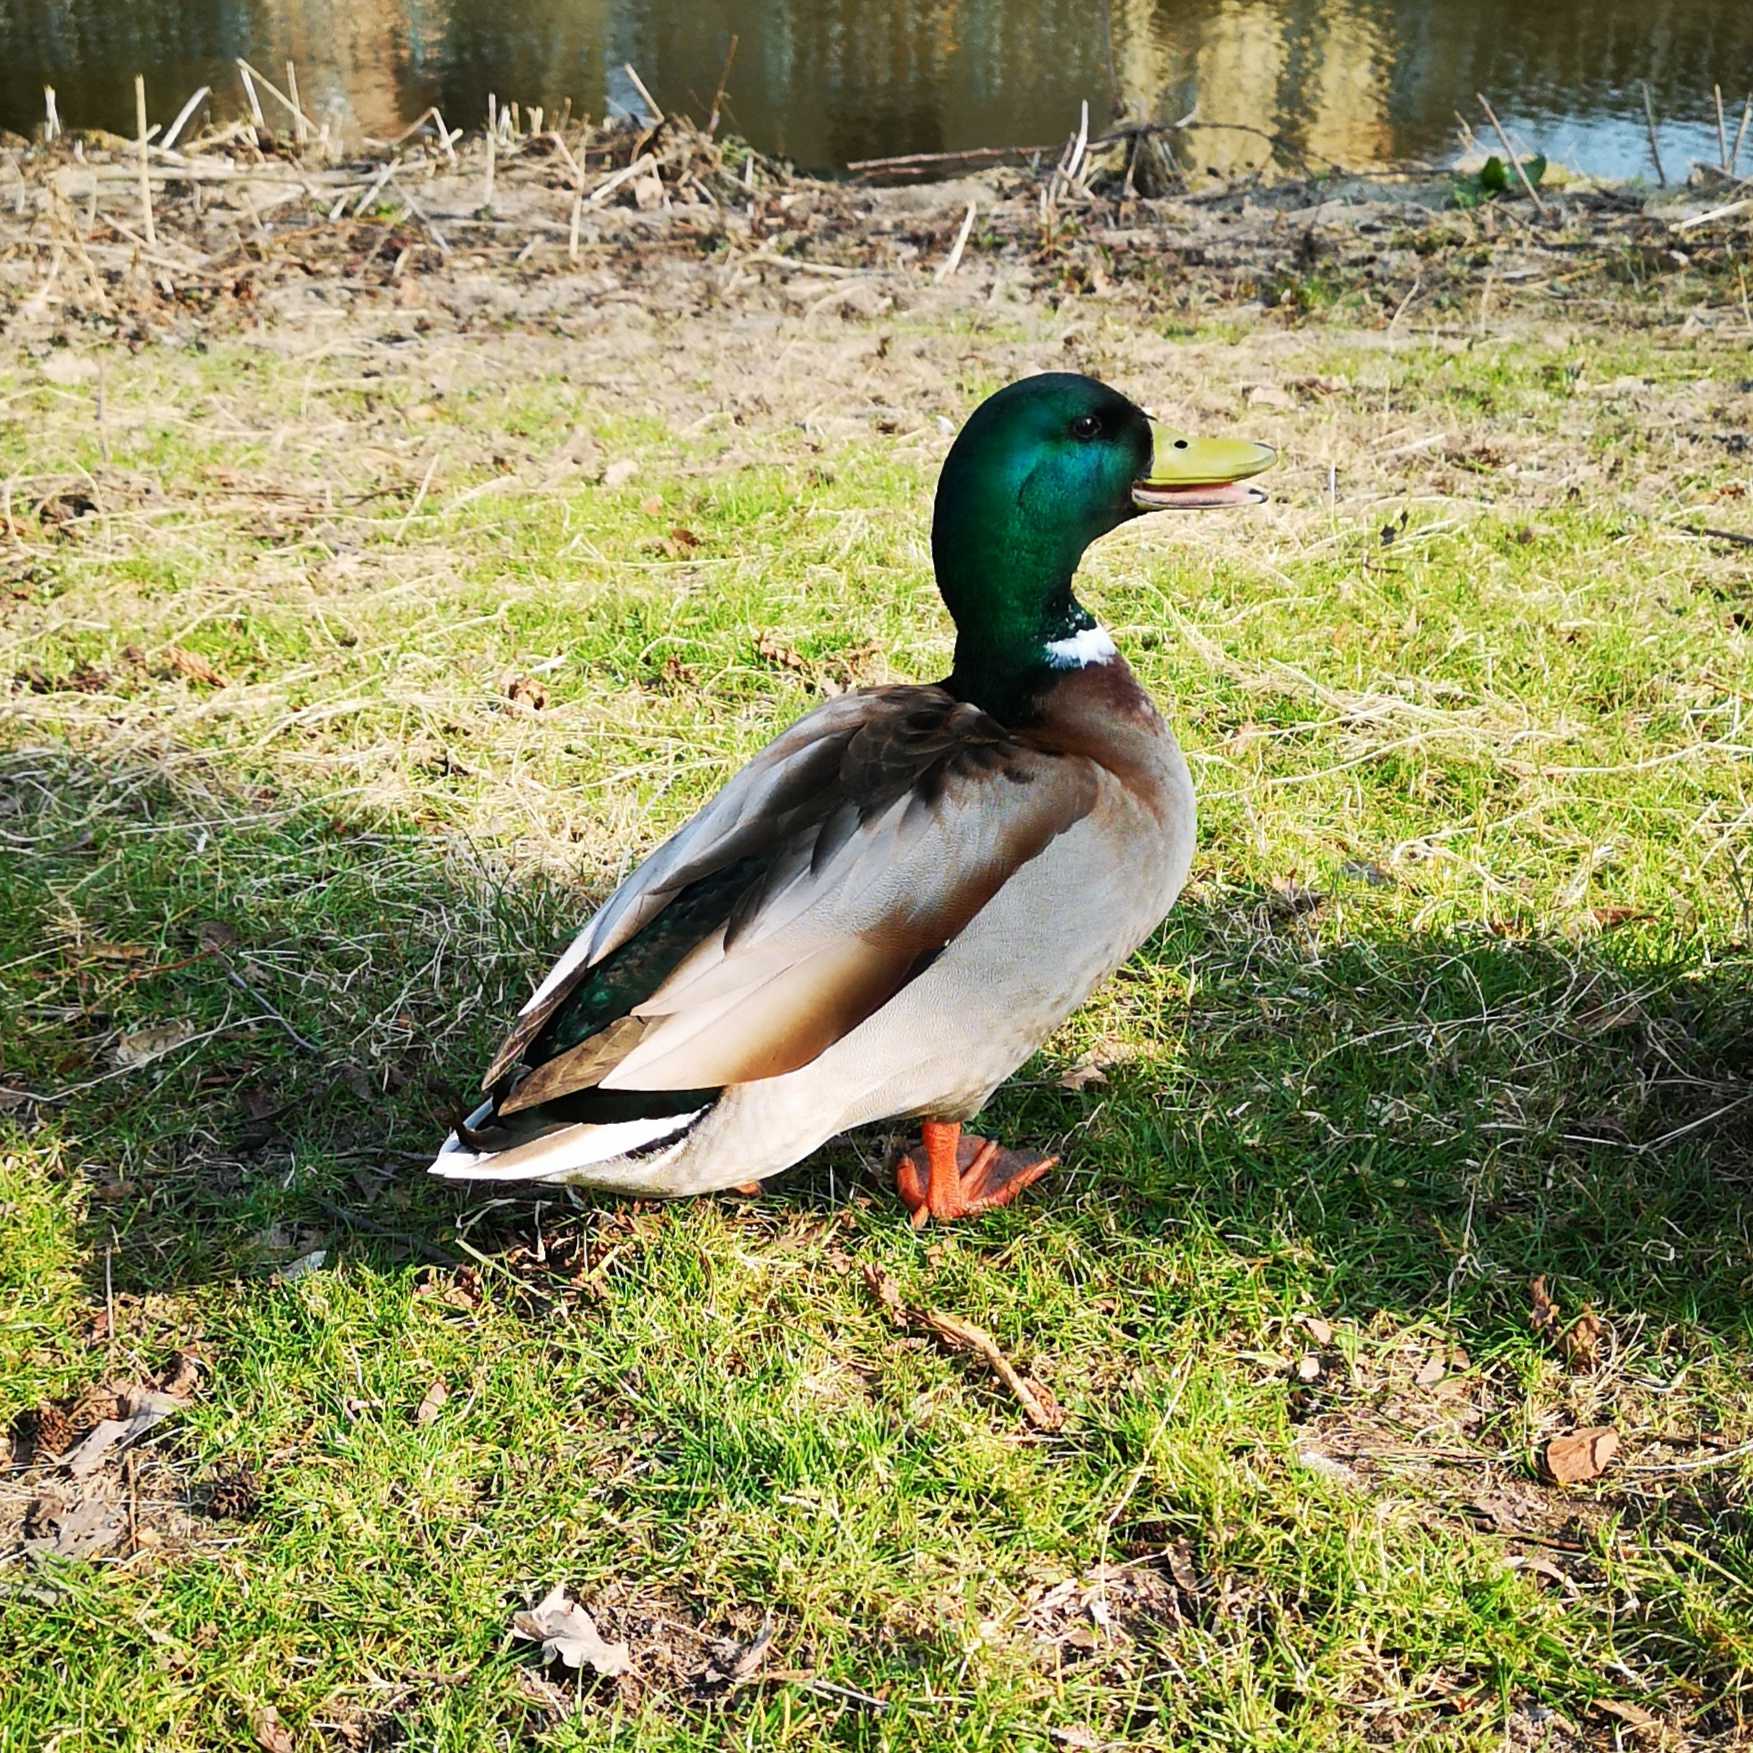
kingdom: Animalia
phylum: Chordata
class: Aves
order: Anseriformes
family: Anatidae
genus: Anas
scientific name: Anas platyrhynchos
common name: Gråand
